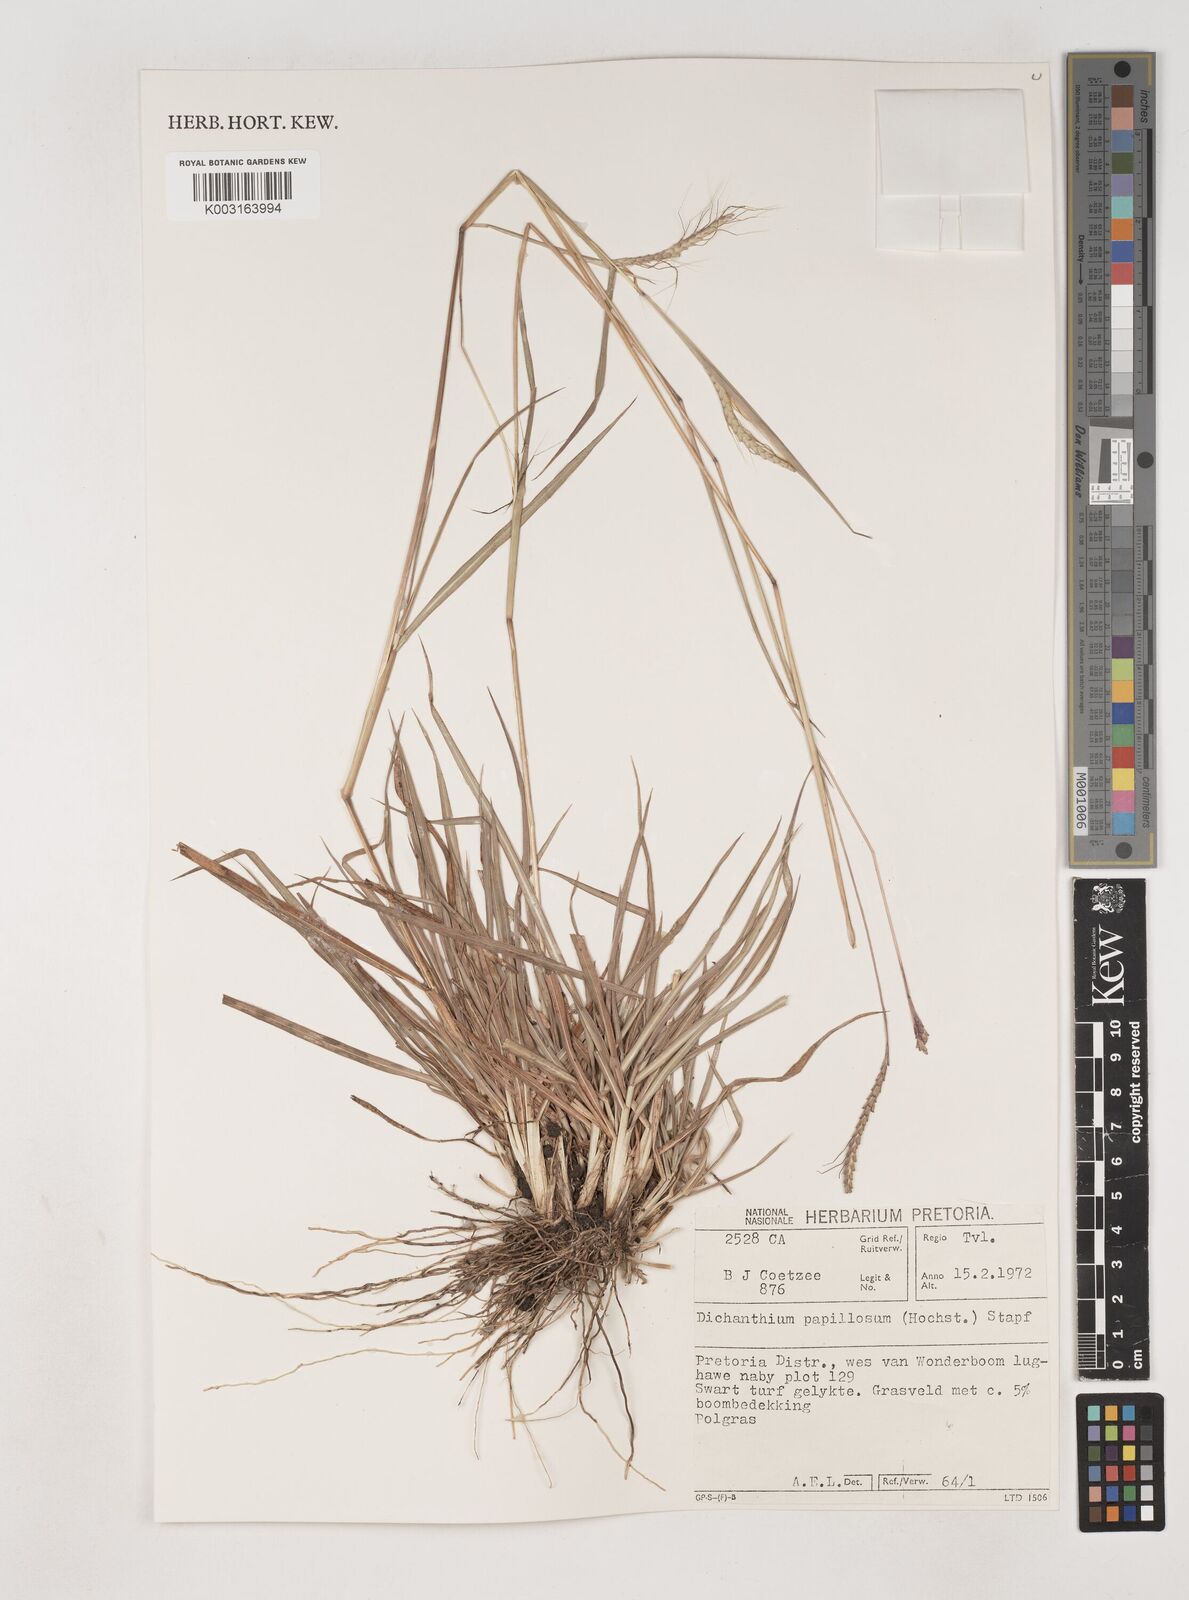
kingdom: Plantae
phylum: Tracheophyta
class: Liliopsida
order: Poales
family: Poaceae
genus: Dichanthium
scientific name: Dichanthium annulatum
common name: Kleberg's bluestem
